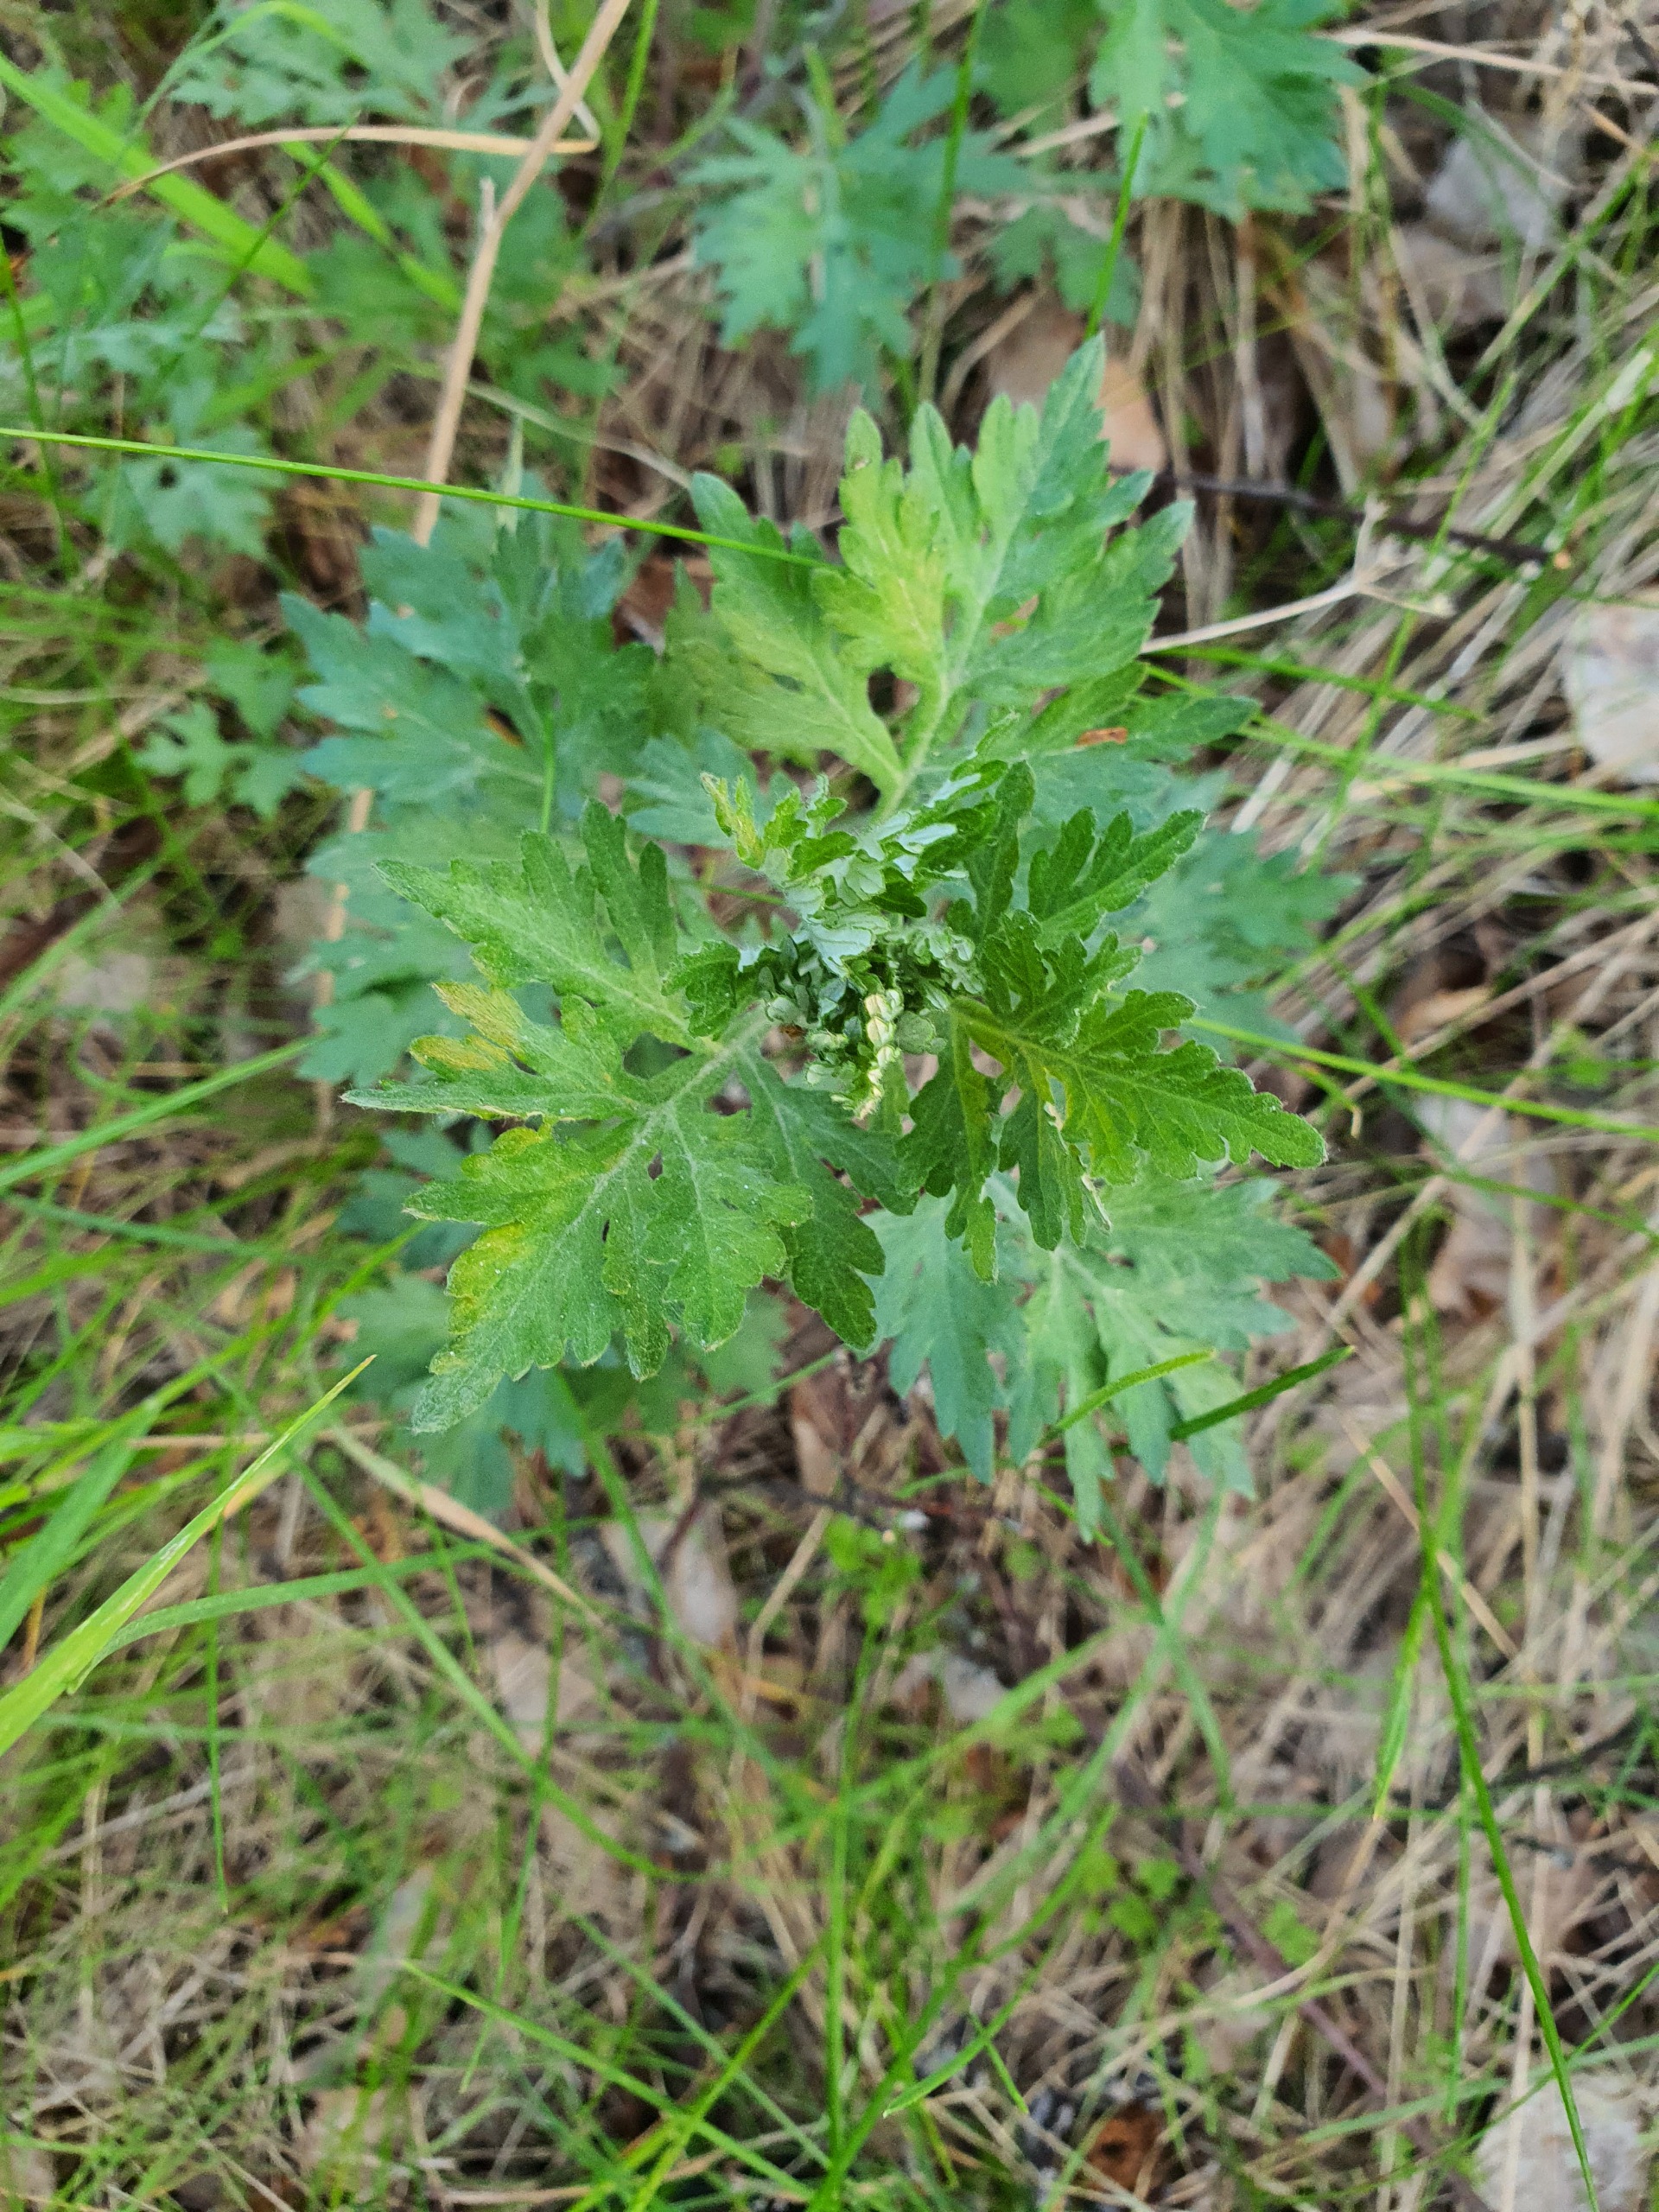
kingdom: Plantae
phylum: Tracheophyta
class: Magnoliopsida
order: Asterales
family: Asteraceae
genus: Artemisia
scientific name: Artemisia vulgaris
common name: Grå-bynke
